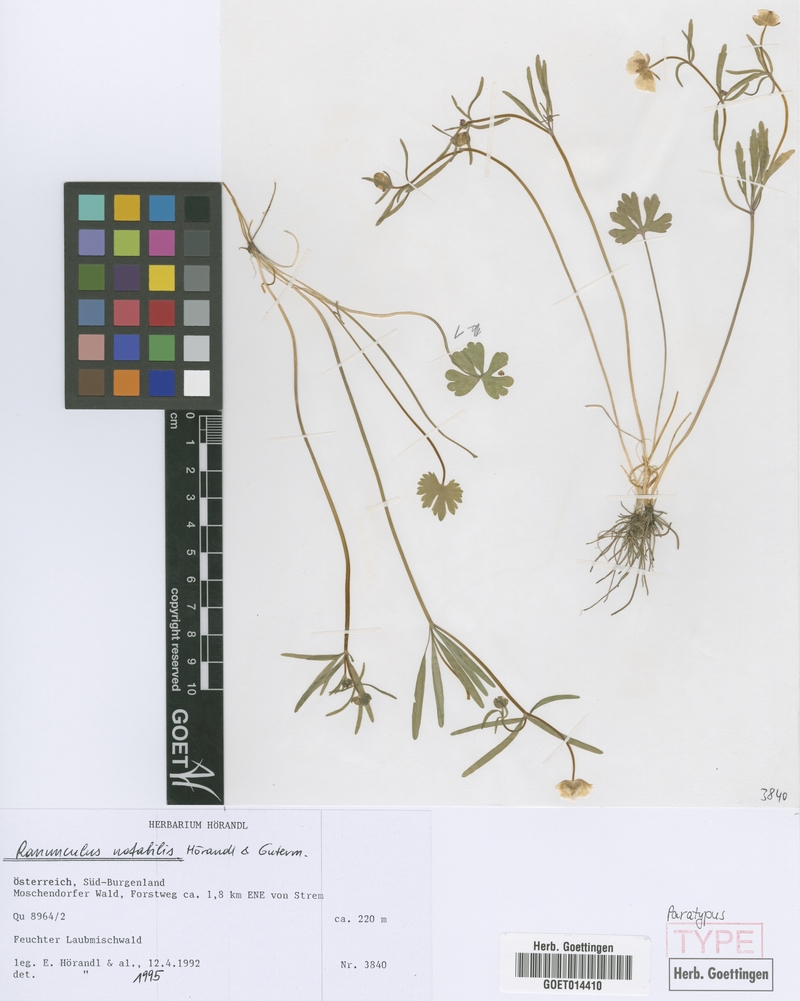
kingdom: Plantae
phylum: Tracheophyta
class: Magnoliopsida
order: Ranunculales
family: Ranunculaceae
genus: Ranunculus
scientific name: Ranunculus notabilis
